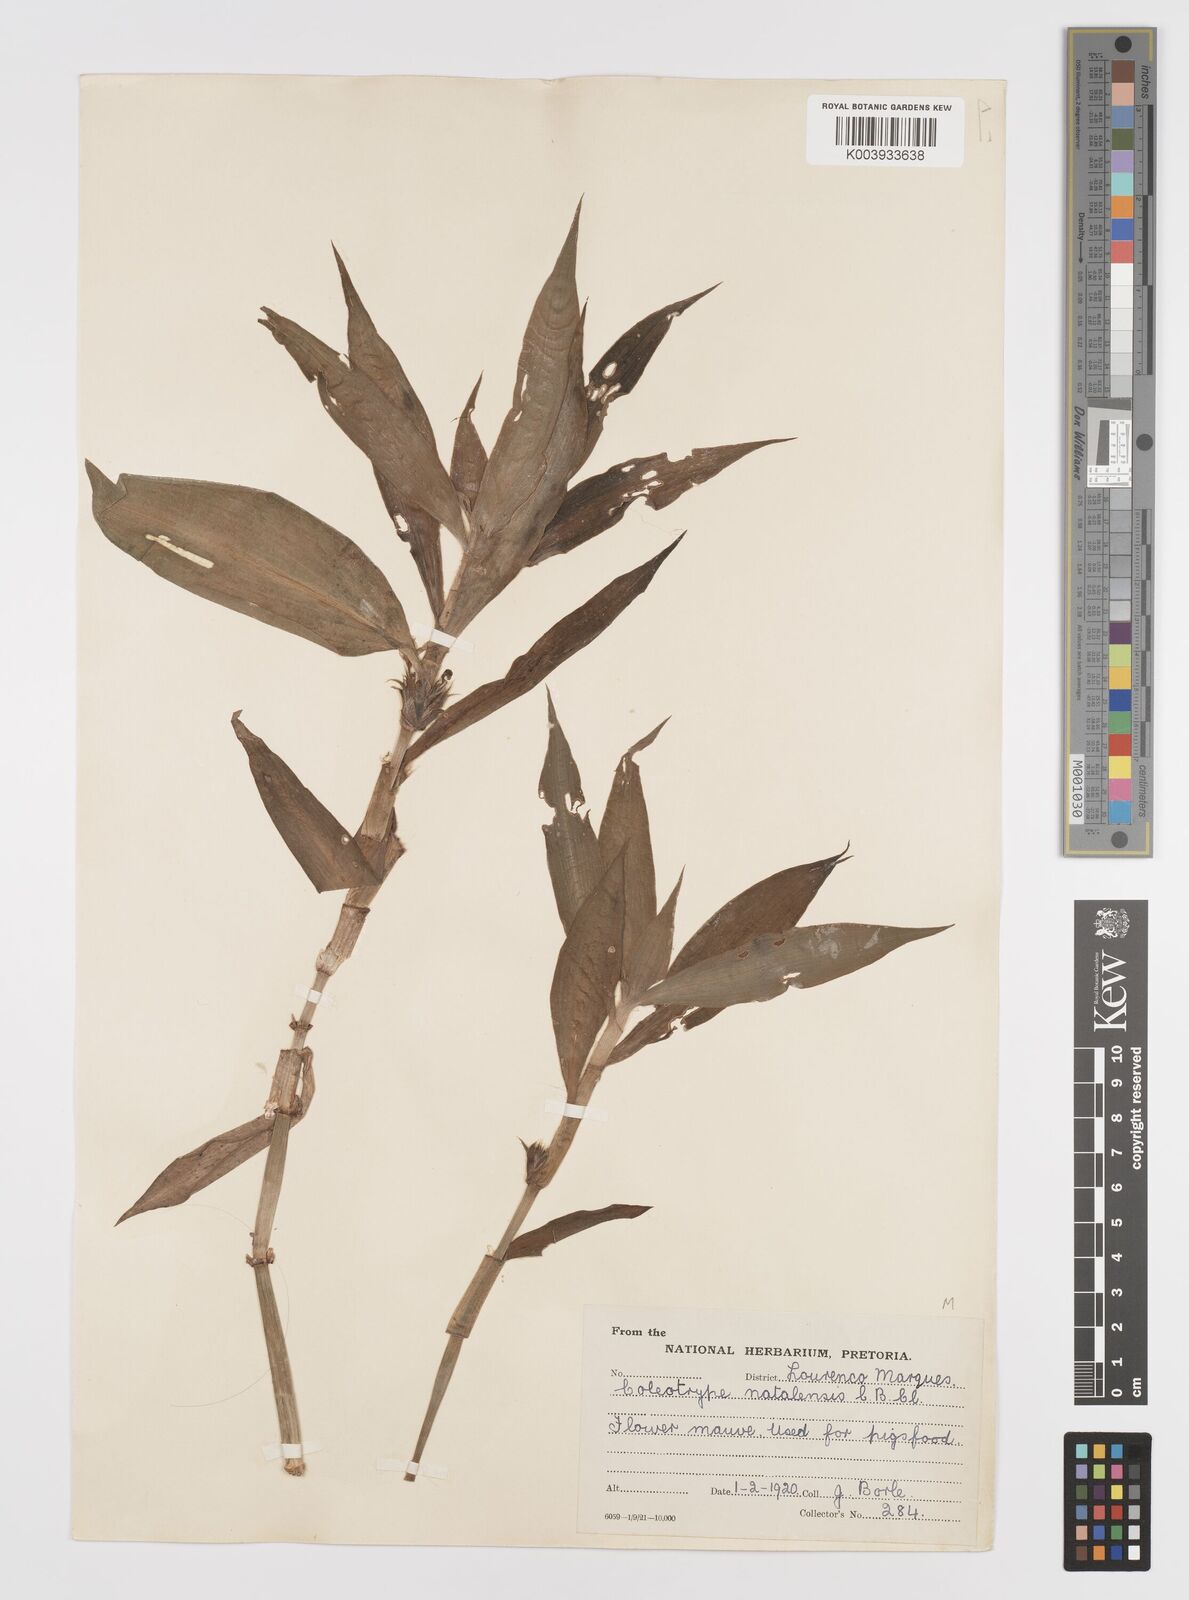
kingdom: Plantae
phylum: Tracheophyta
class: Liliopsida
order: Commelinales
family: Commelinaceae
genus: Coleotrype
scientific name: Coleotrype natalensis
